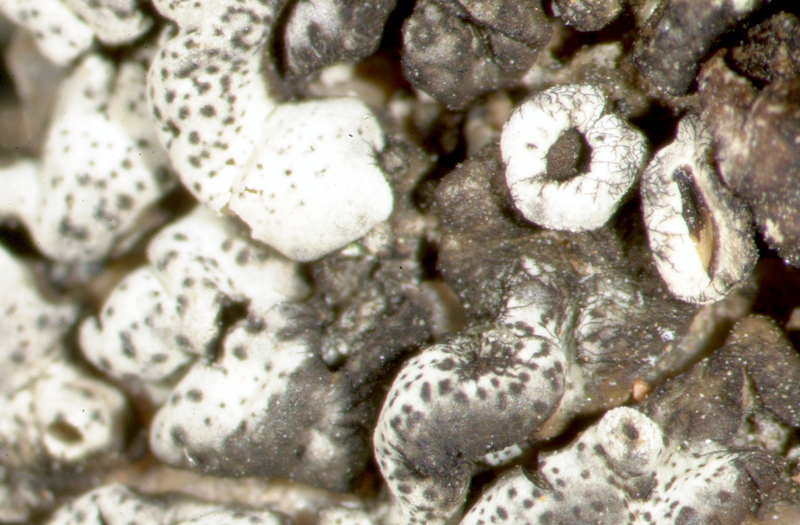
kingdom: Fungi
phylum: Ascomycota
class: Lecanoromycetes
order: Lecanorales
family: Parmeliaceae
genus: Paraparmelia
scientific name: Paraparmelia
